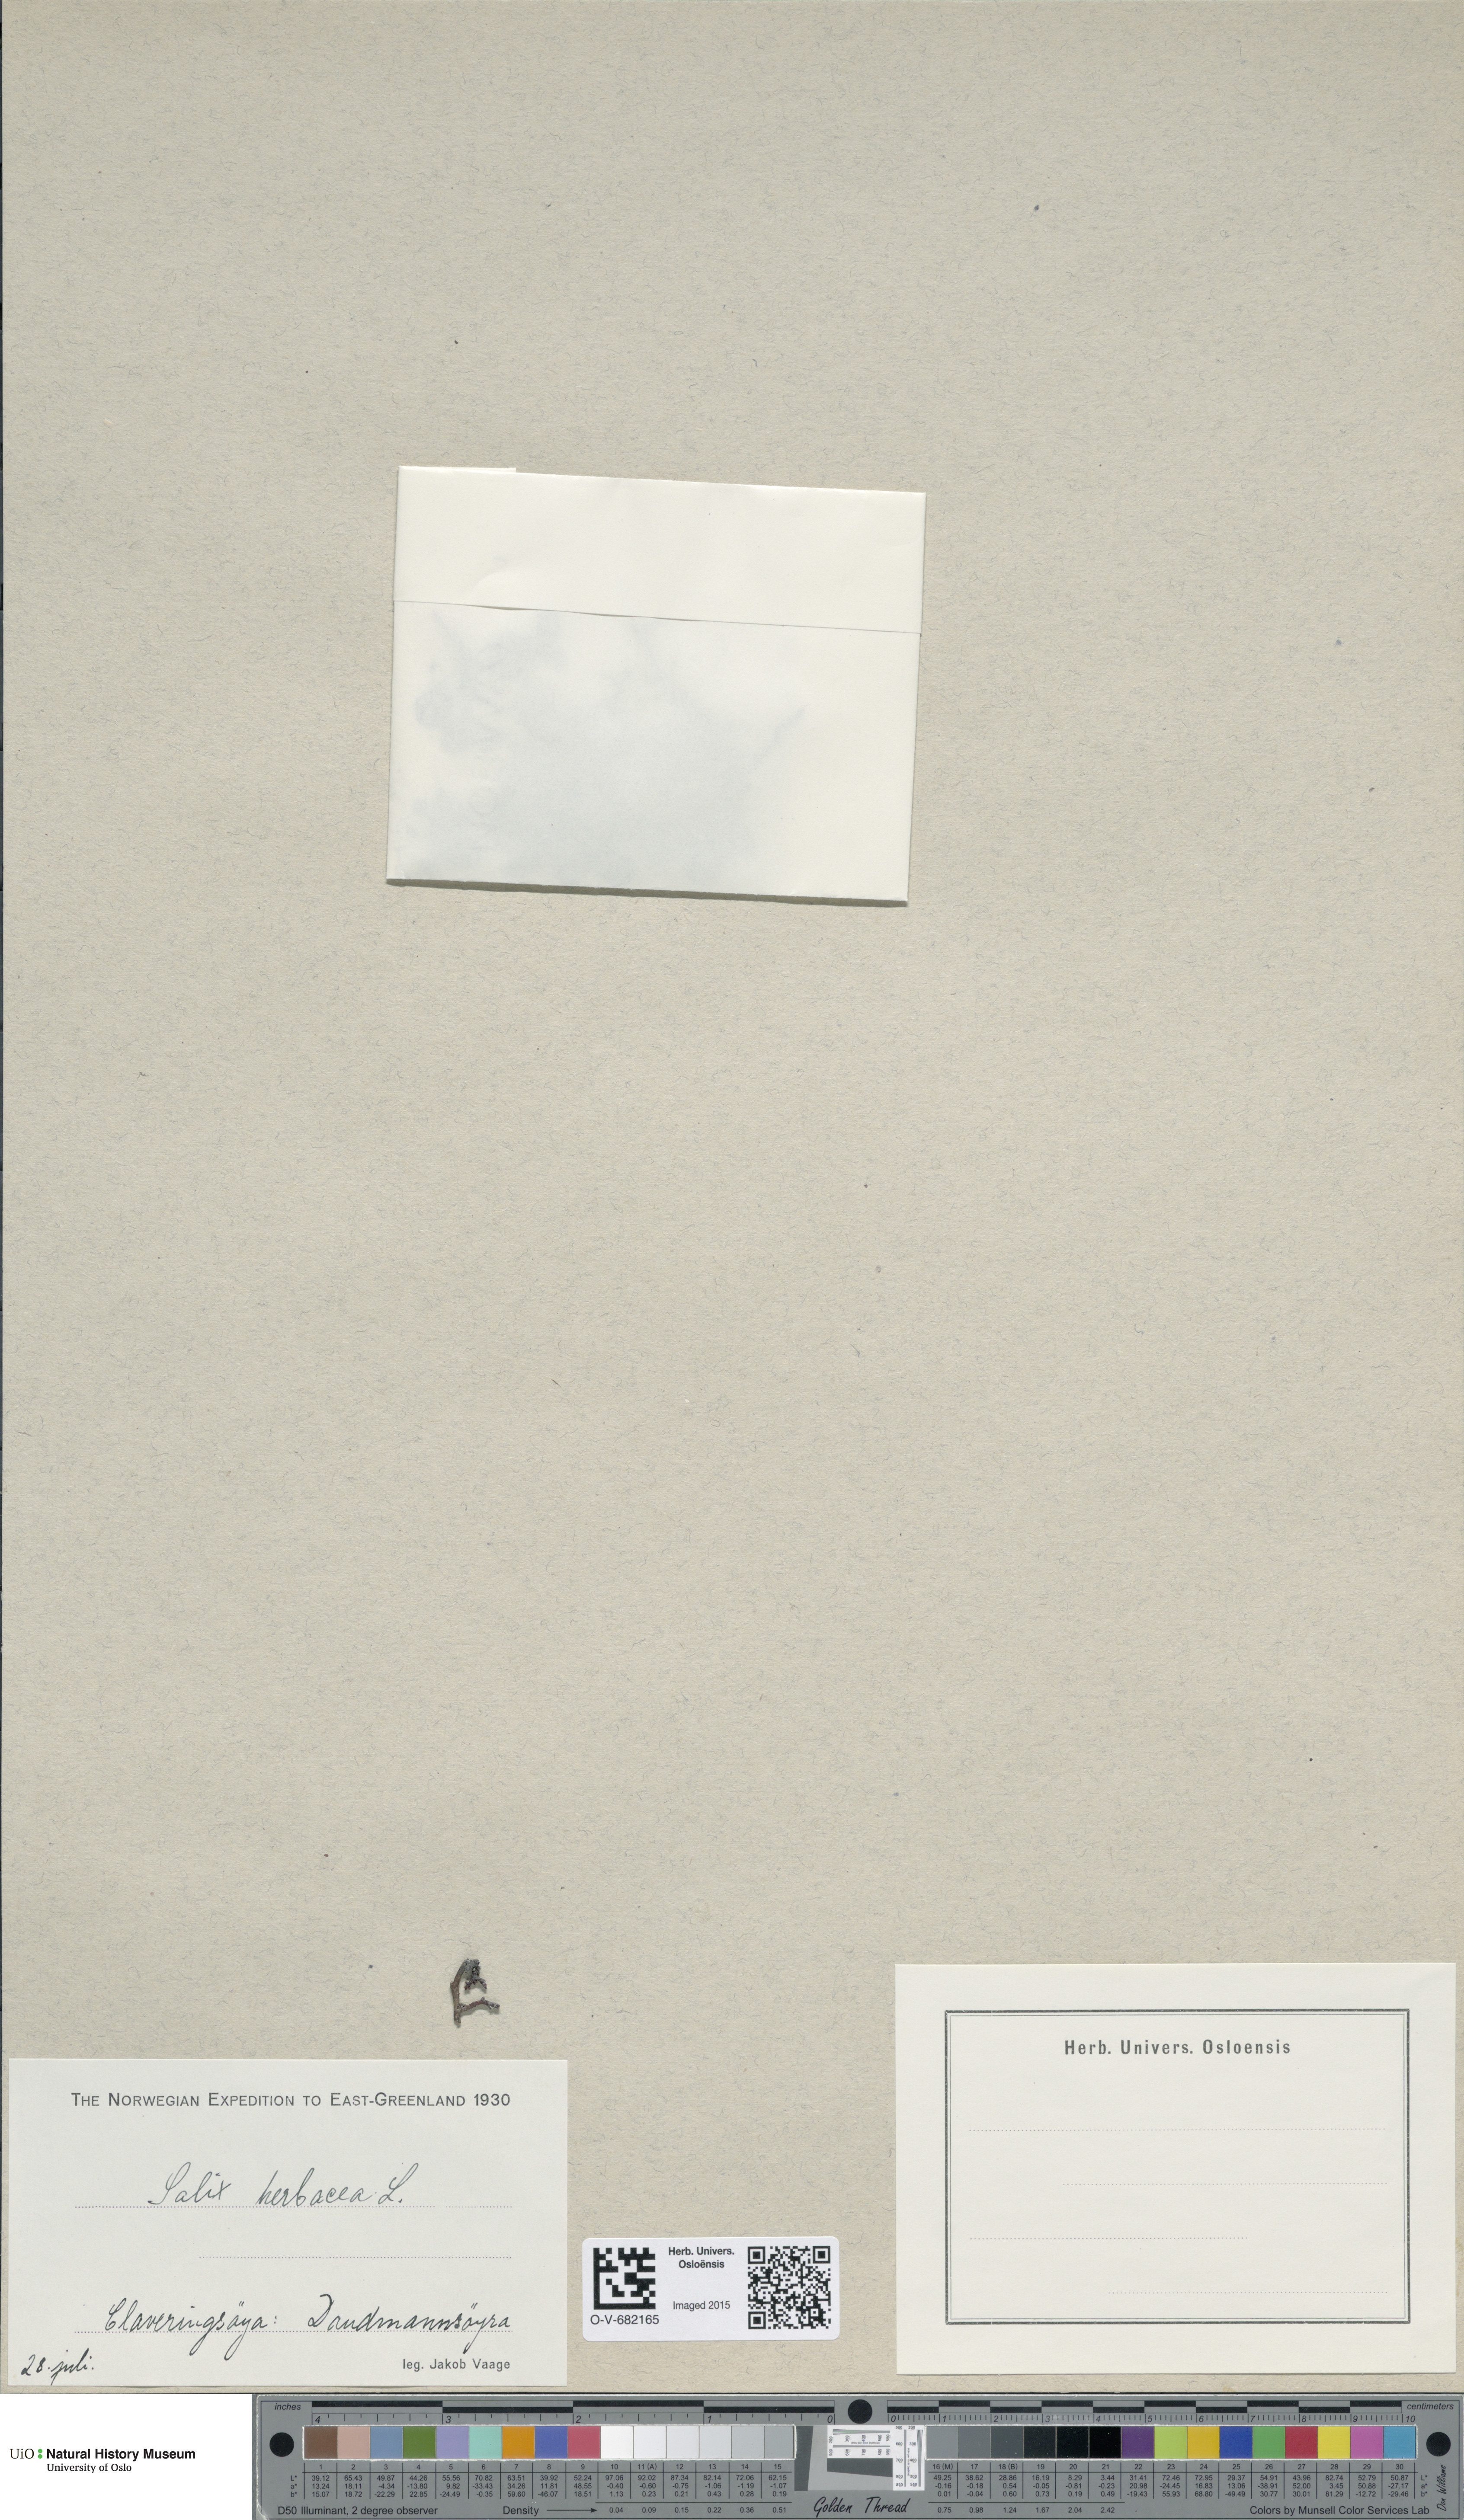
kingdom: Plantae
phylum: Tracheophyta
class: Magnoliopsida
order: Malpighiales
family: Salicaceae
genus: Salix
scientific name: Salix herbacea
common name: Dwarf willow
